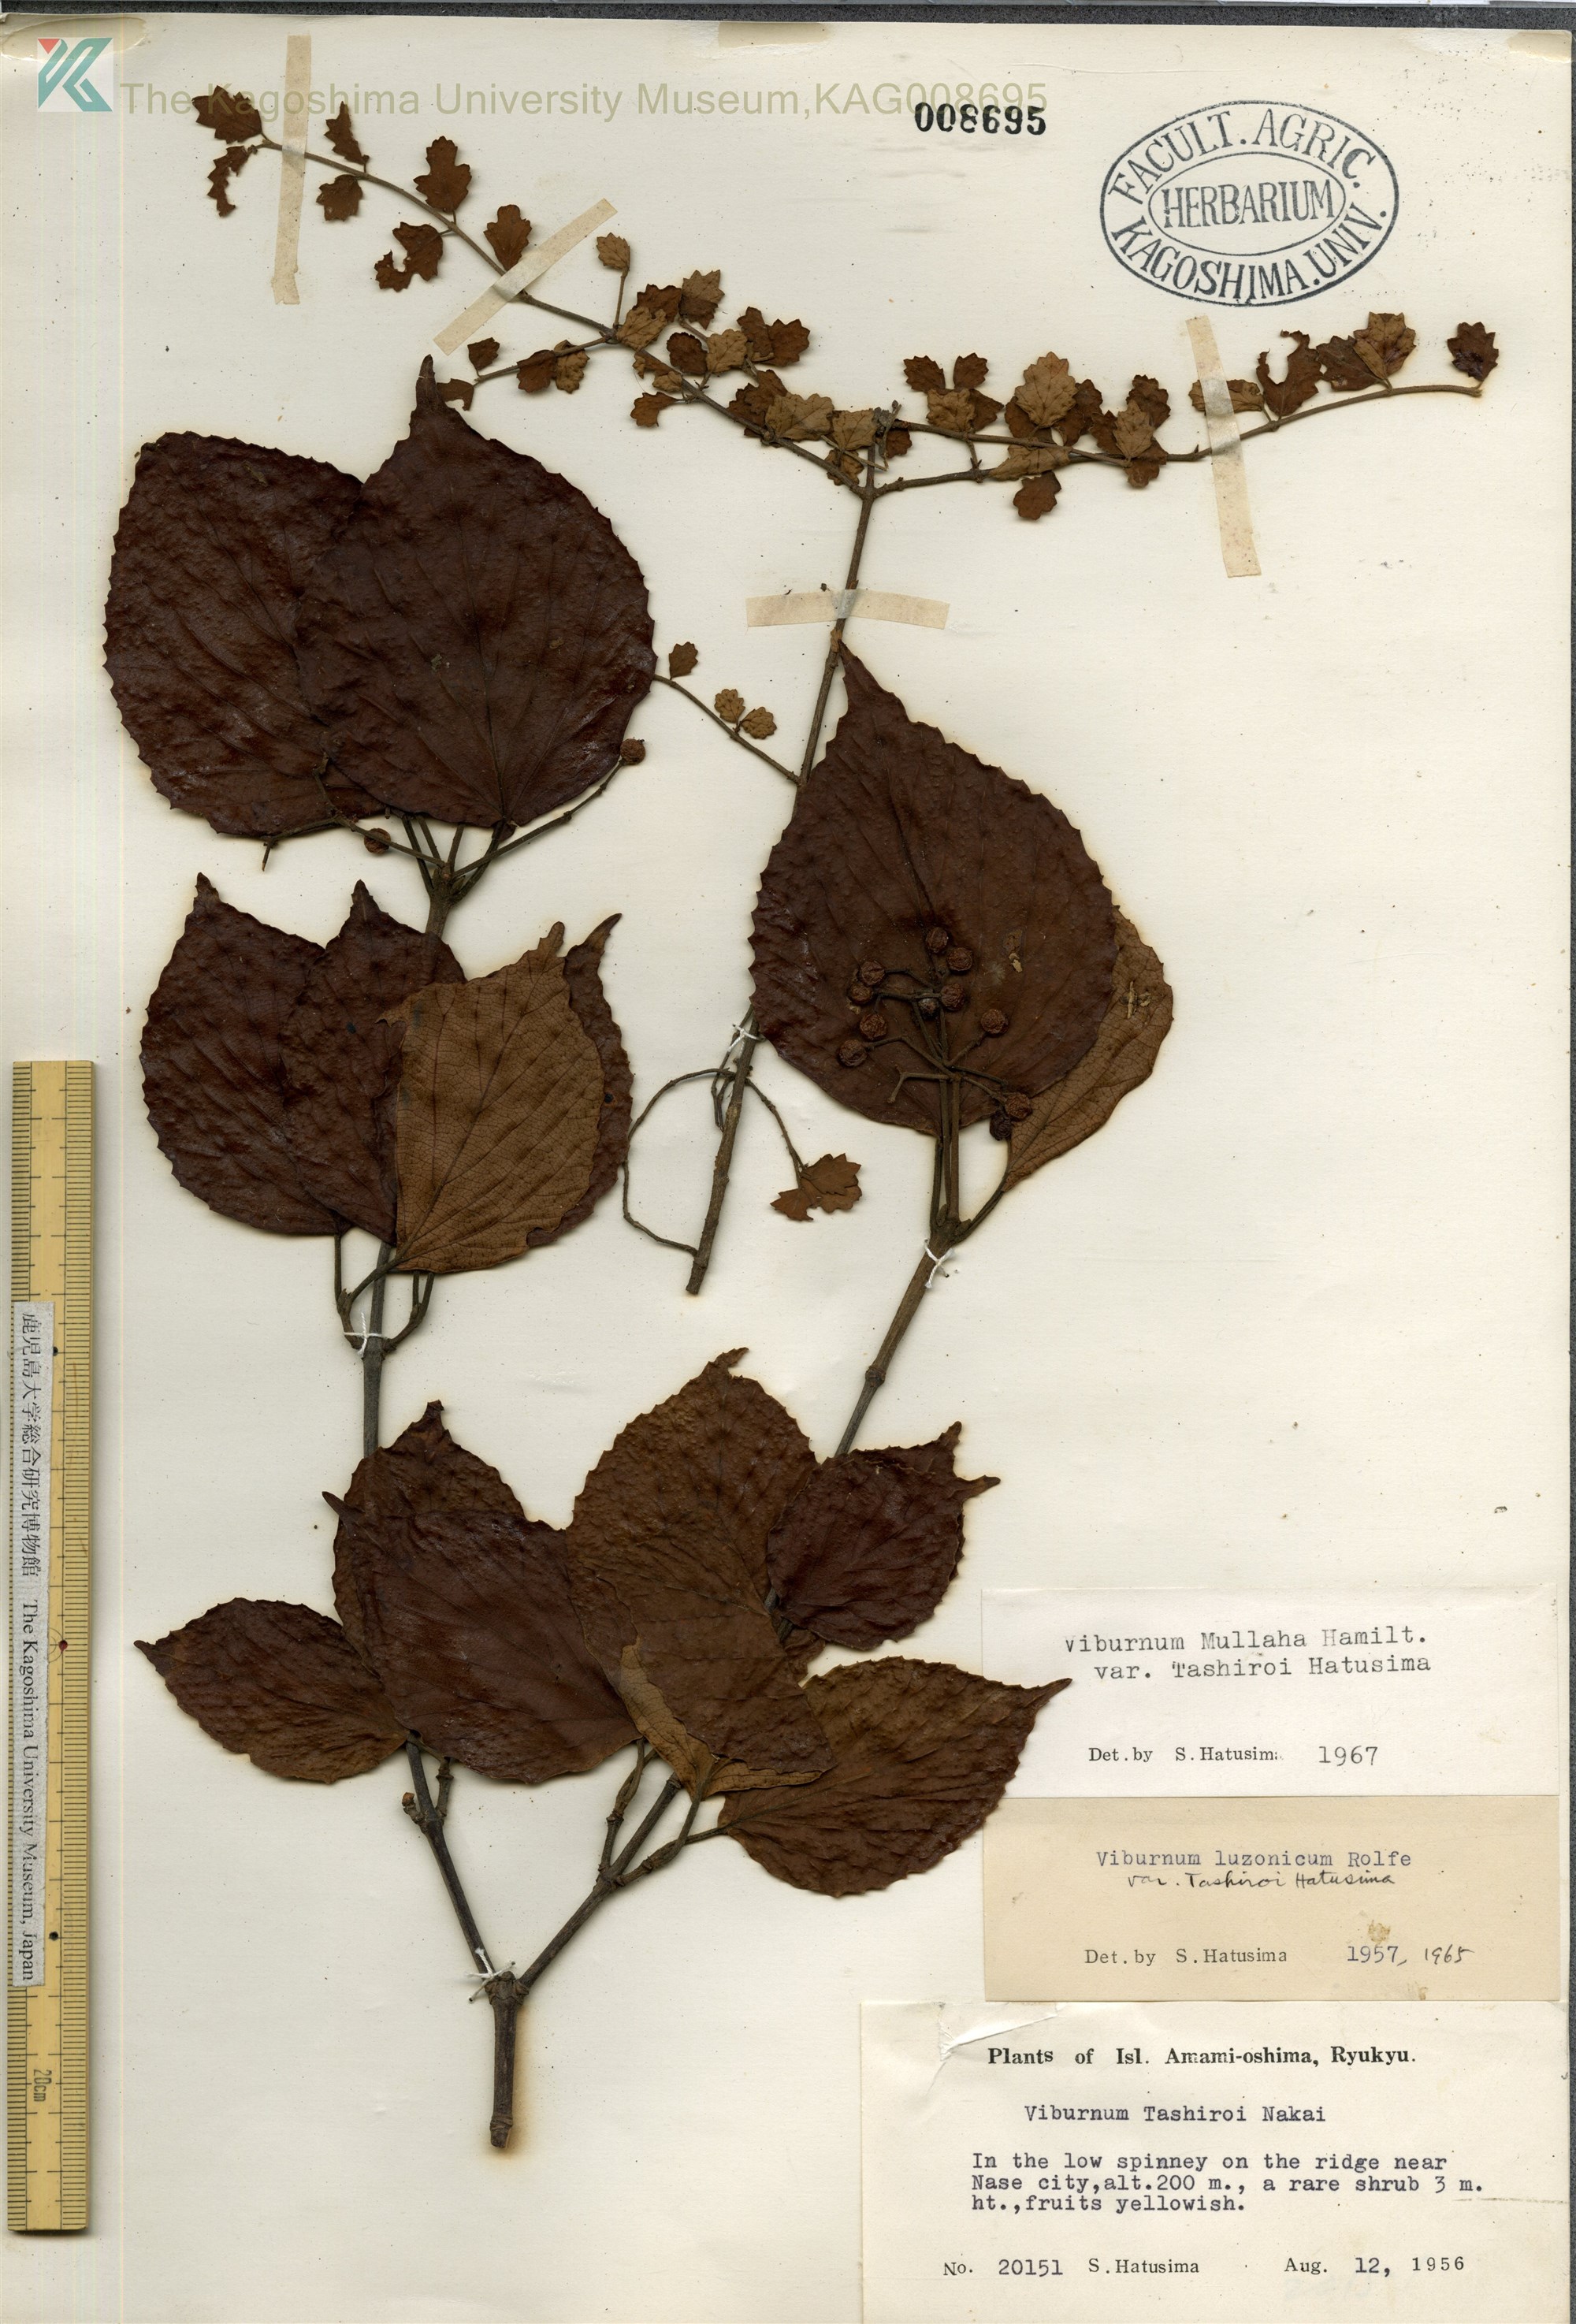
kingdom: Plantae
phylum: Tracheophyta
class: Magnoliopsida
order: Dipsacales
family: Viburnaceae
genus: Viburnum
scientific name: Viburnum luzonicum
